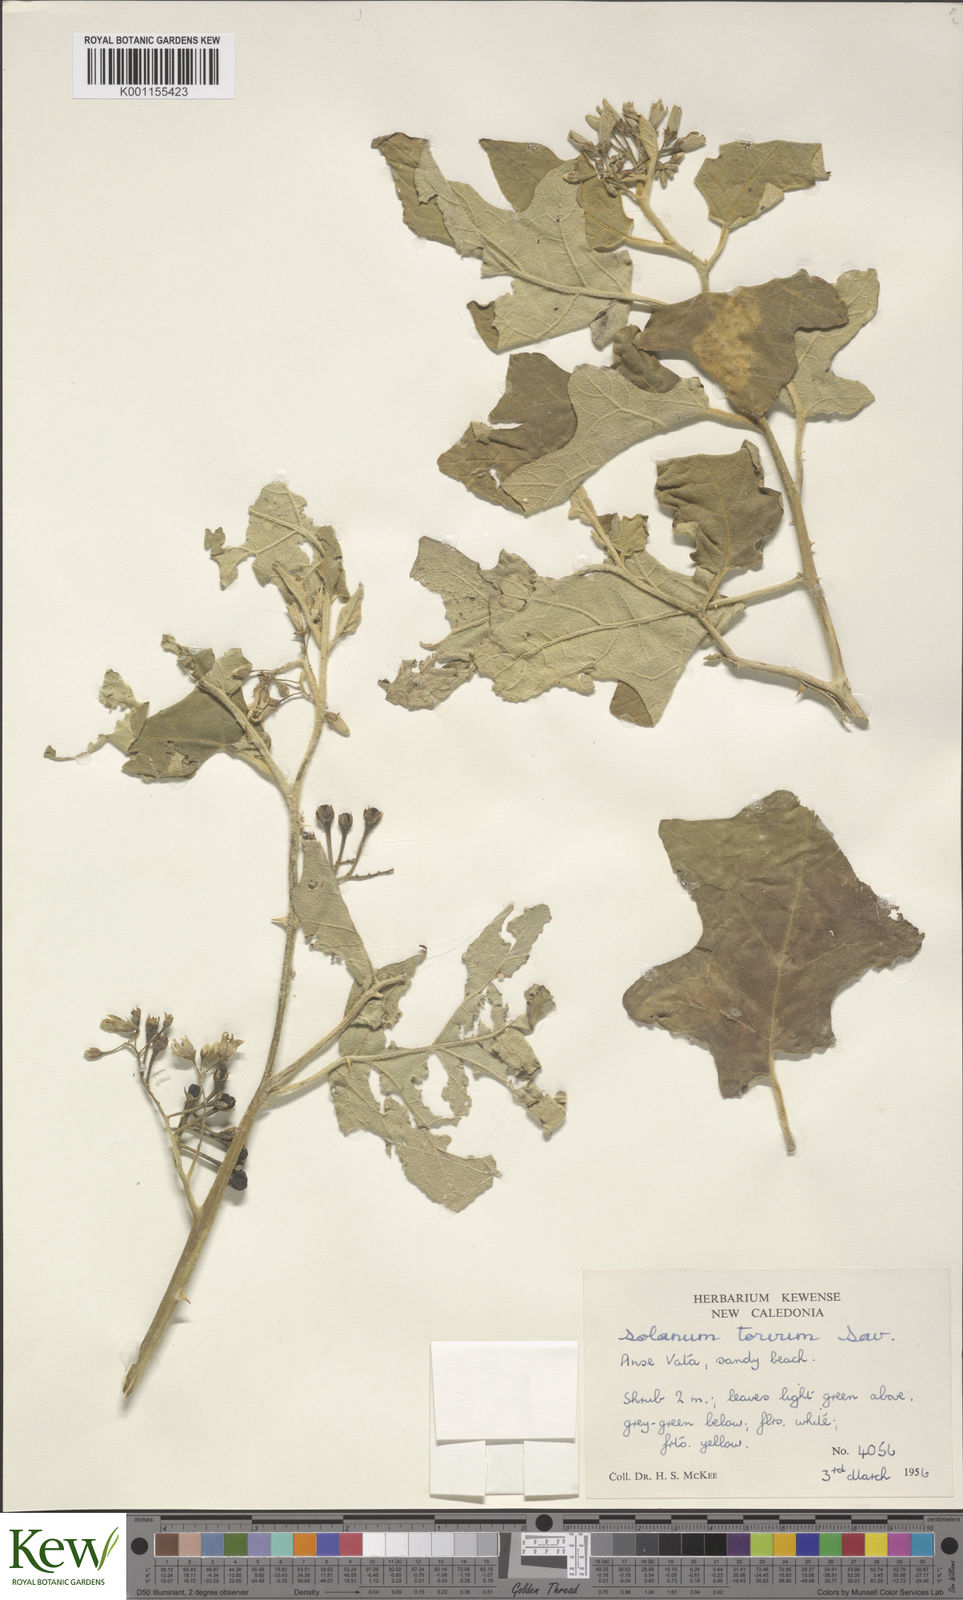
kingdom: Plantae
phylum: Tracheophyta
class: Magnoliopsida
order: Solanales
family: Solanaceae
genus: Solanum
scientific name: Solanum torvum
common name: Turkey berry
